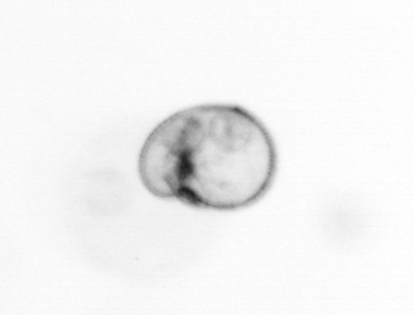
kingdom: Chromista
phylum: Myzozoa
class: Dinophyceae
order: Noctilucales
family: Noctilucaceae
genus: Noctiluca
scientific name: Noctiluca scintillans
